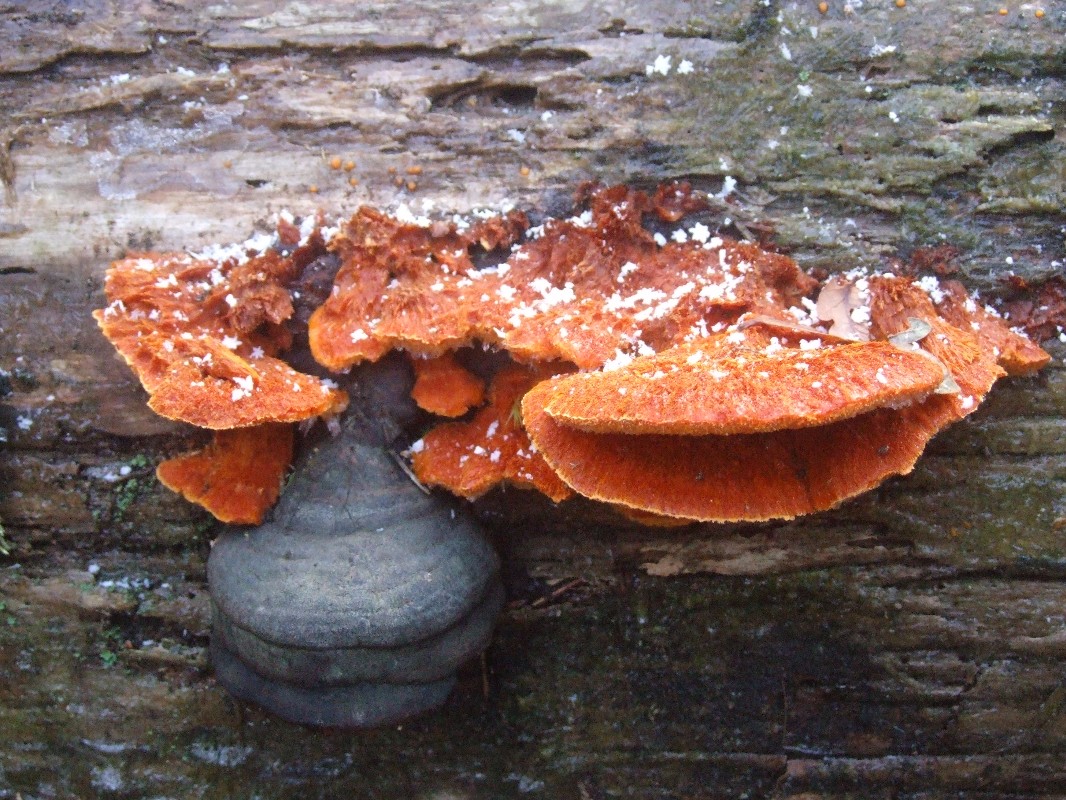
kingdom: Fungi
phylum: Basidiomycota
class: Agaricomycetes
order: Polyporales
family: Pycnoporellaceae
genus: Pycnoporellus
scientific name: Pycnoporellus fulgens
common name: flammeporesvamp
